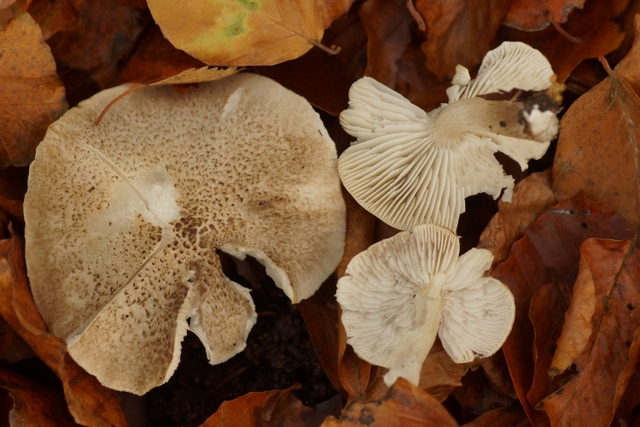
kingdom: Fungi
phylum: Basidiomycota
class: Agaricomycetes
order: Agaricales
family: Tricholomataceae
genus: Tricholoma
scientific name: Tricholoma scalpturatum
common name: gulplettet ridderhat
